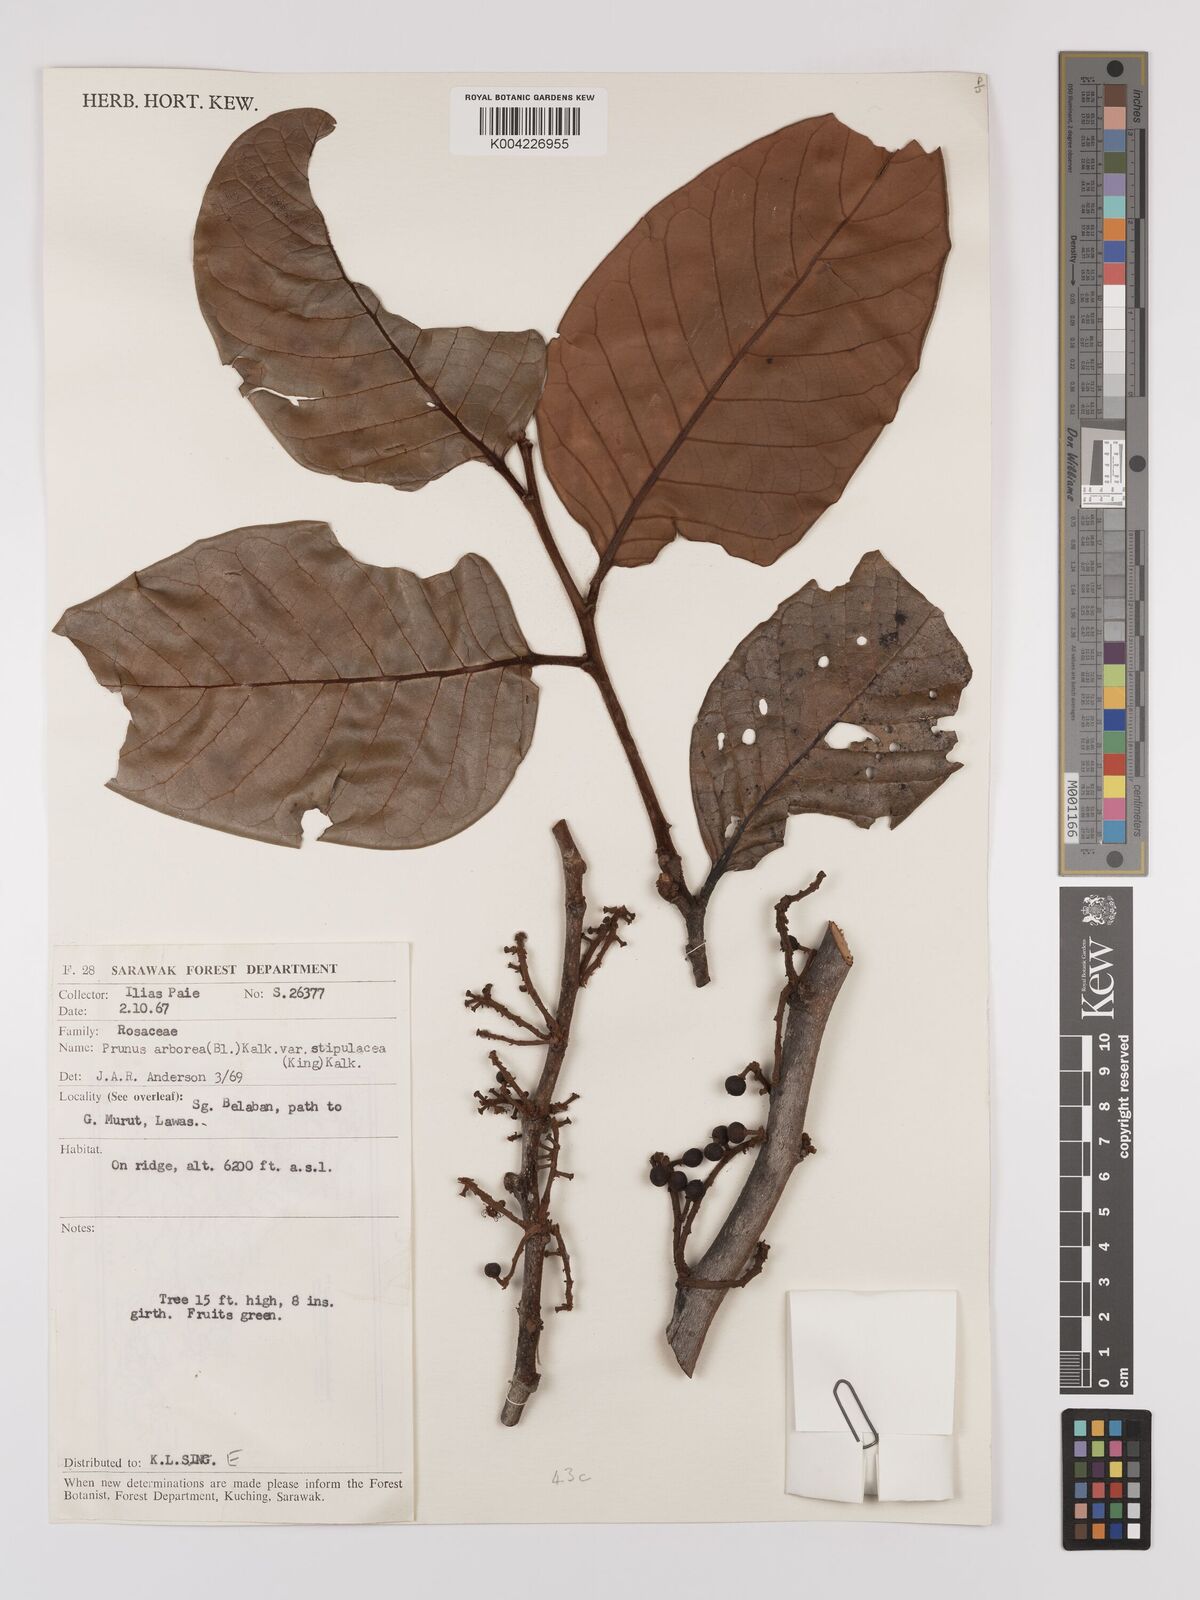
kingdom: Plantae
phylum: Tracheophyta
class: Magnoliopsida
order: Rosales
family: Rosaceae
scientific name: Rosaceae
